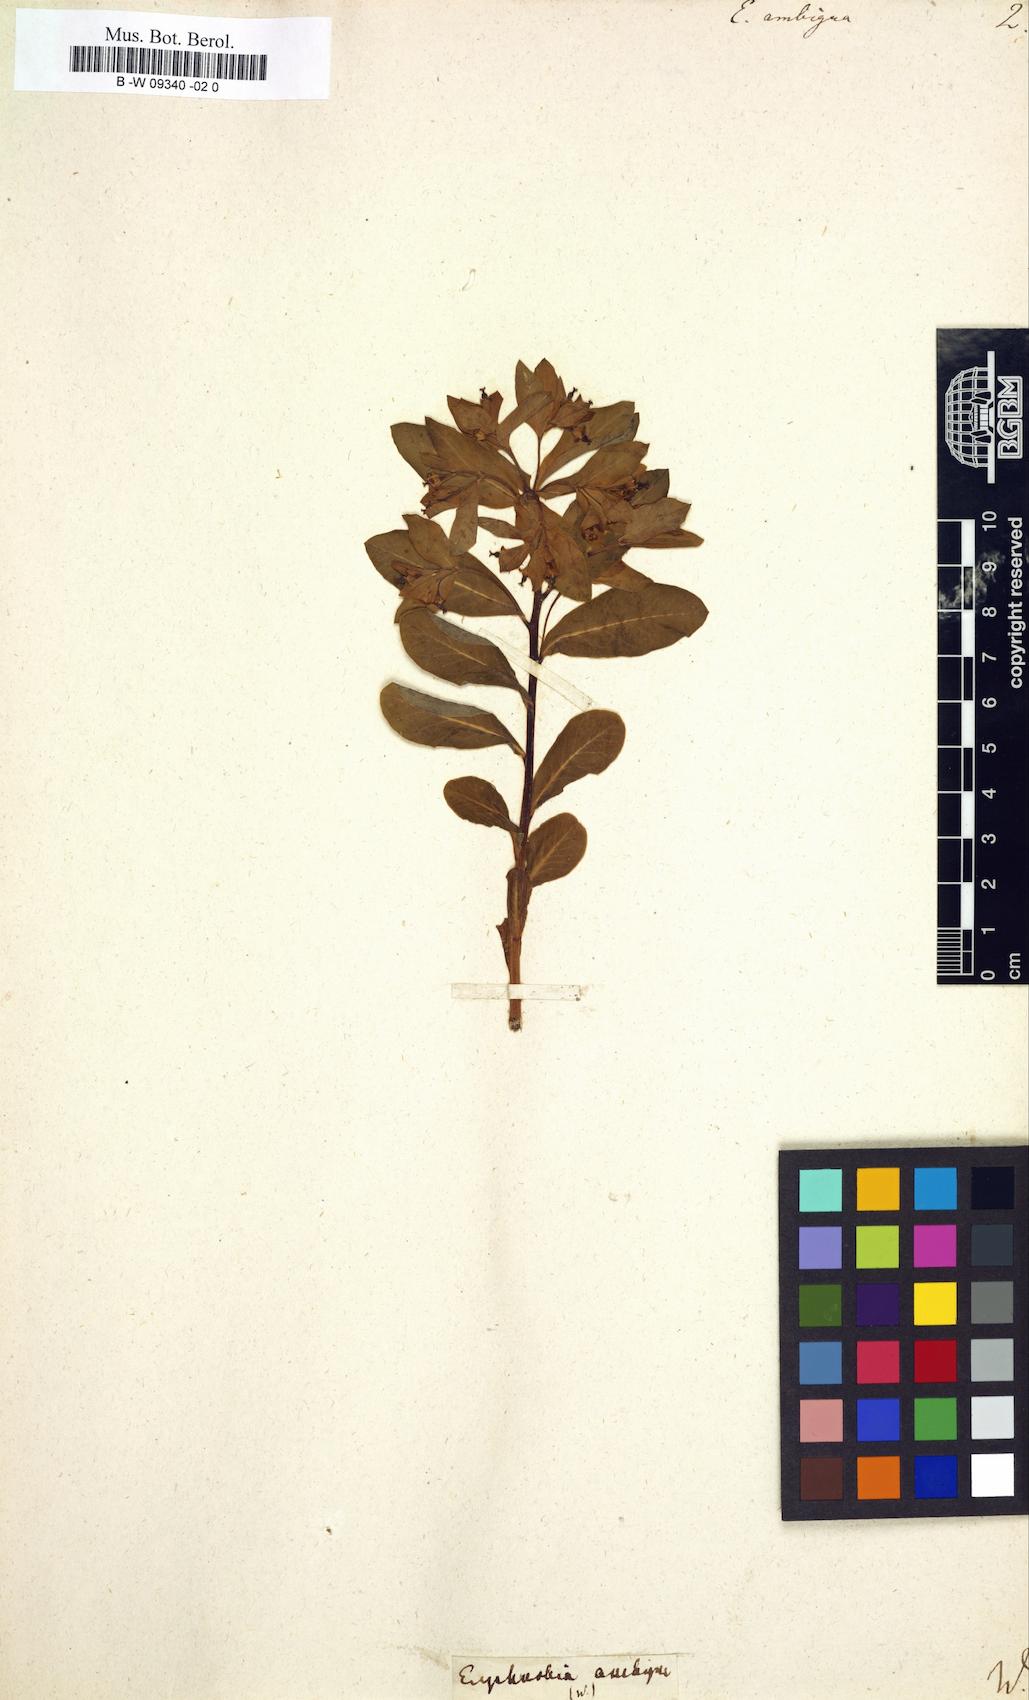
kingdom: Plantae
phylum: Tracheophyta
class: Magnoliopsida
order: Malpighiales
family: Euphorbiaceae
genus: Euphorbia
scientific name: Euphorbia ambigua
